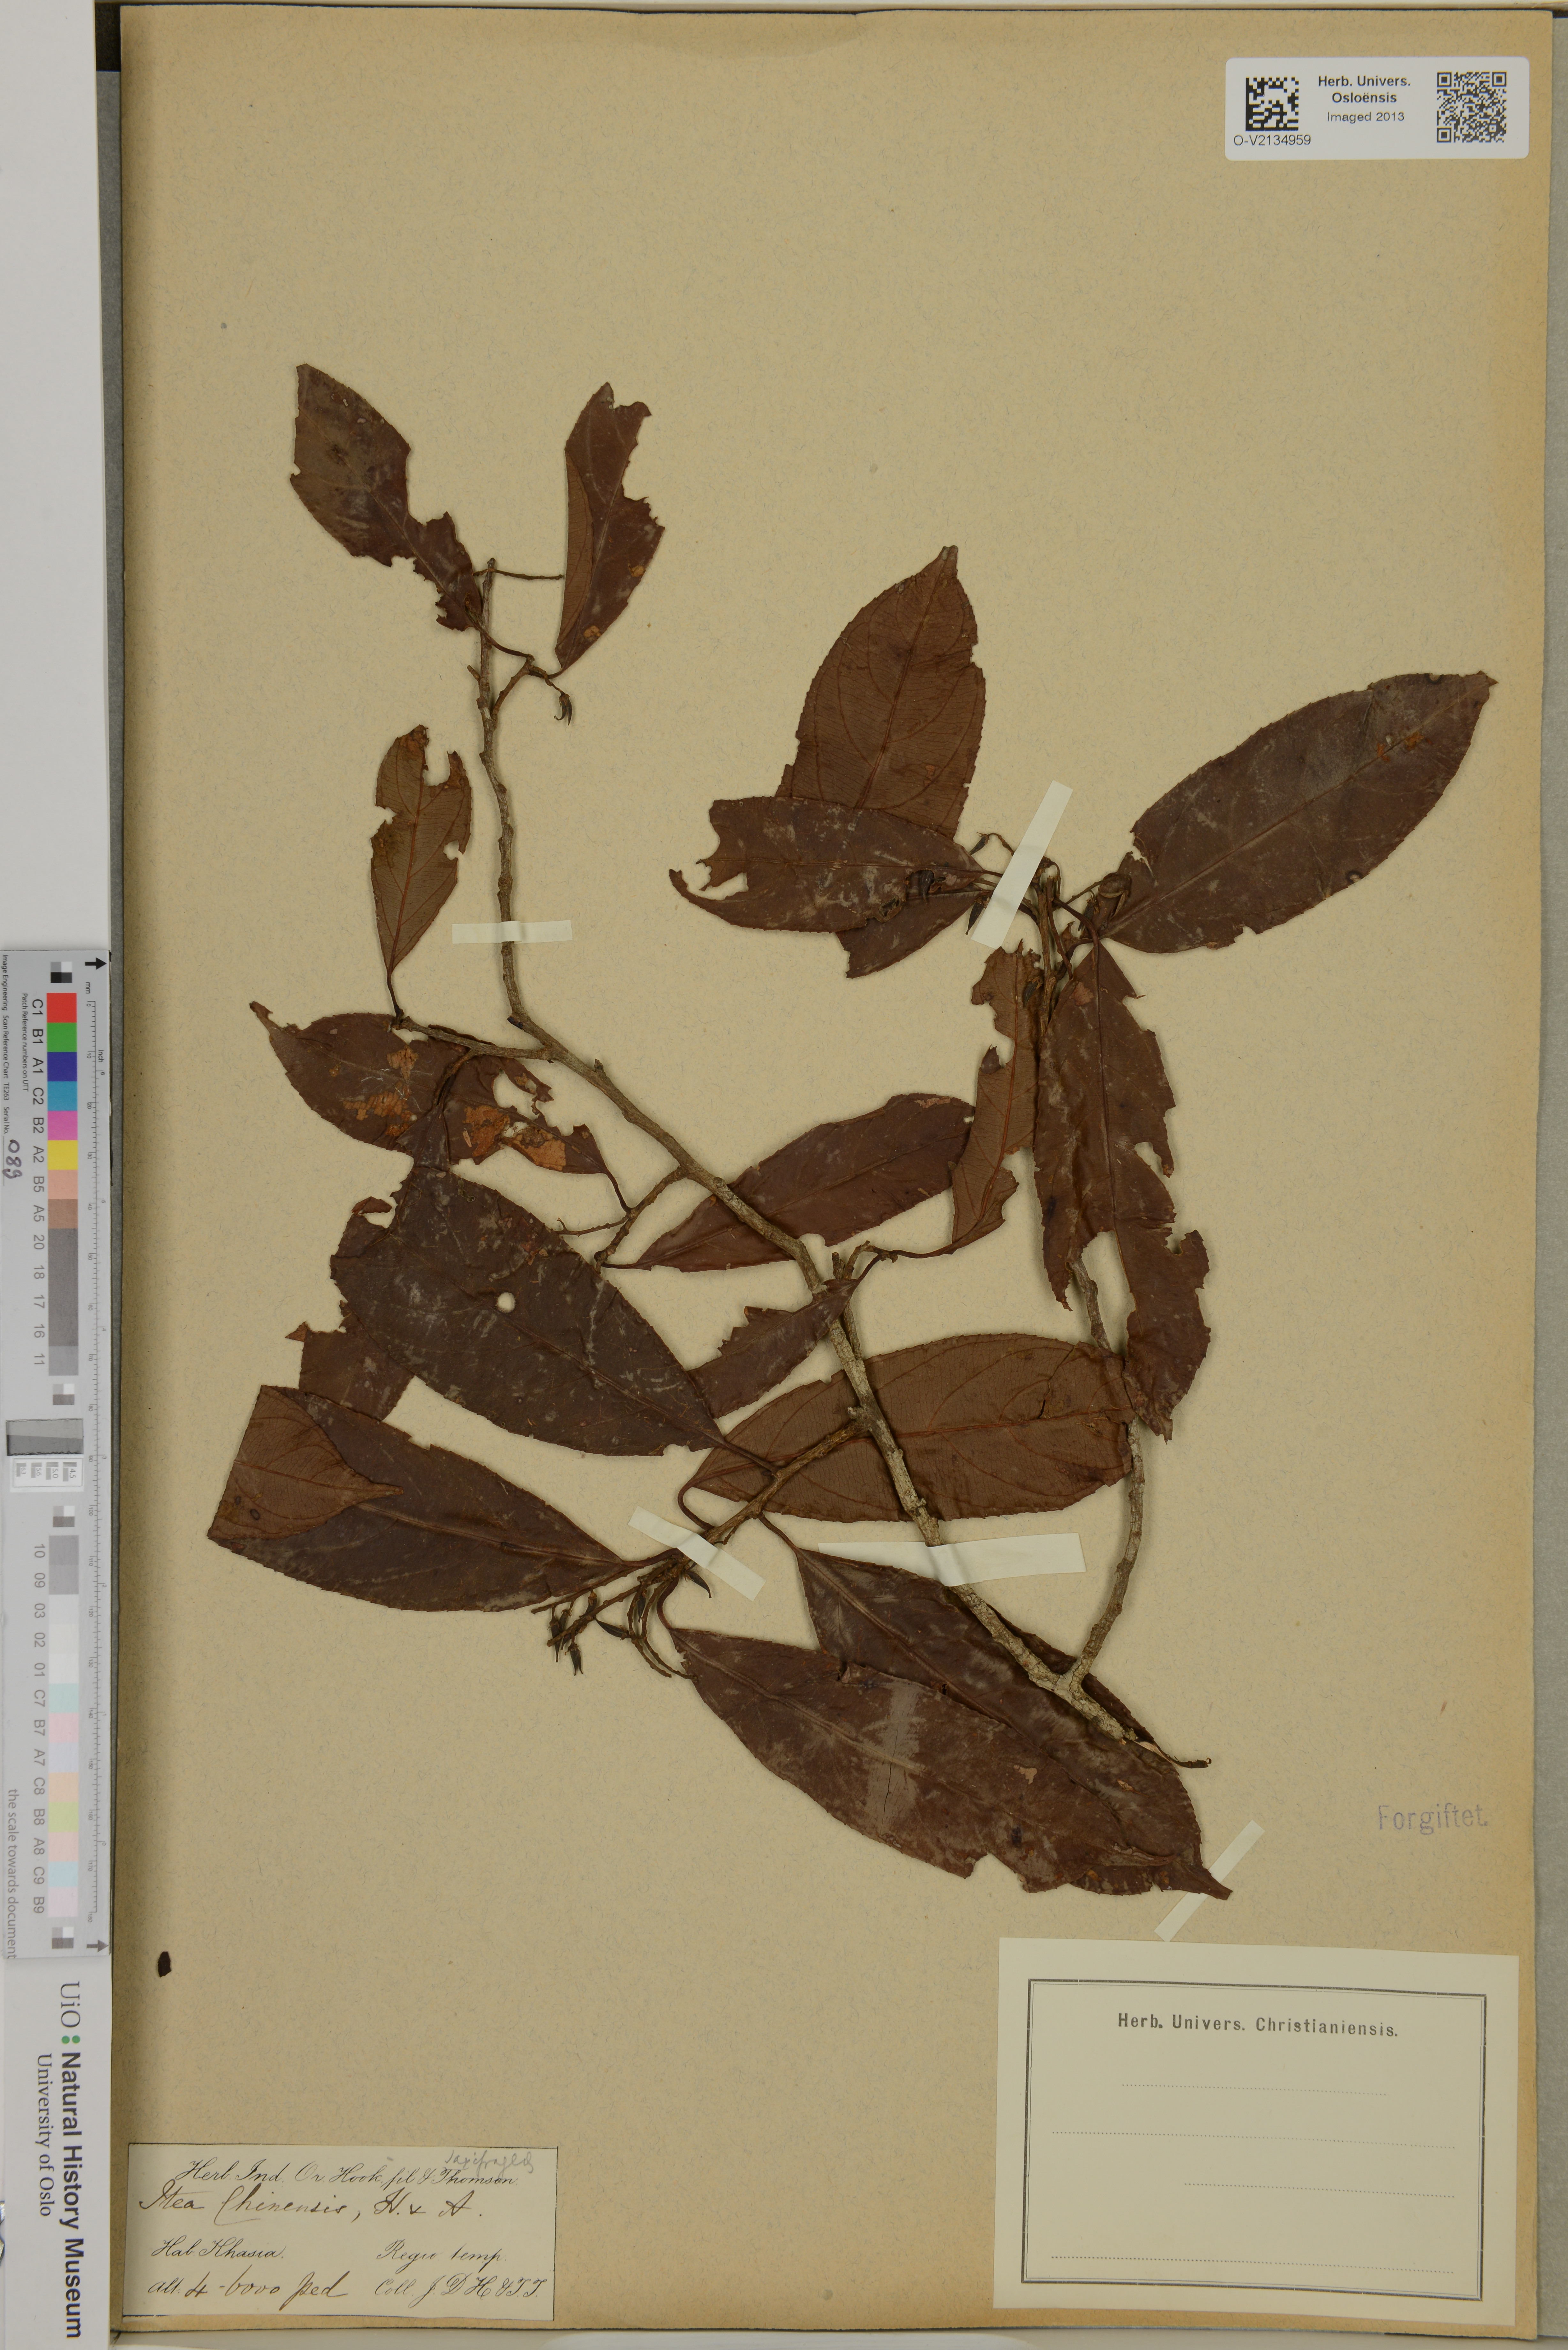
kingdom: Plantae
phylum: Tracheophyta
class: Magnoliopsida
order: Saxifragales
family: Iteaceae
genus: Itea
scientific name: Itea chinensis
